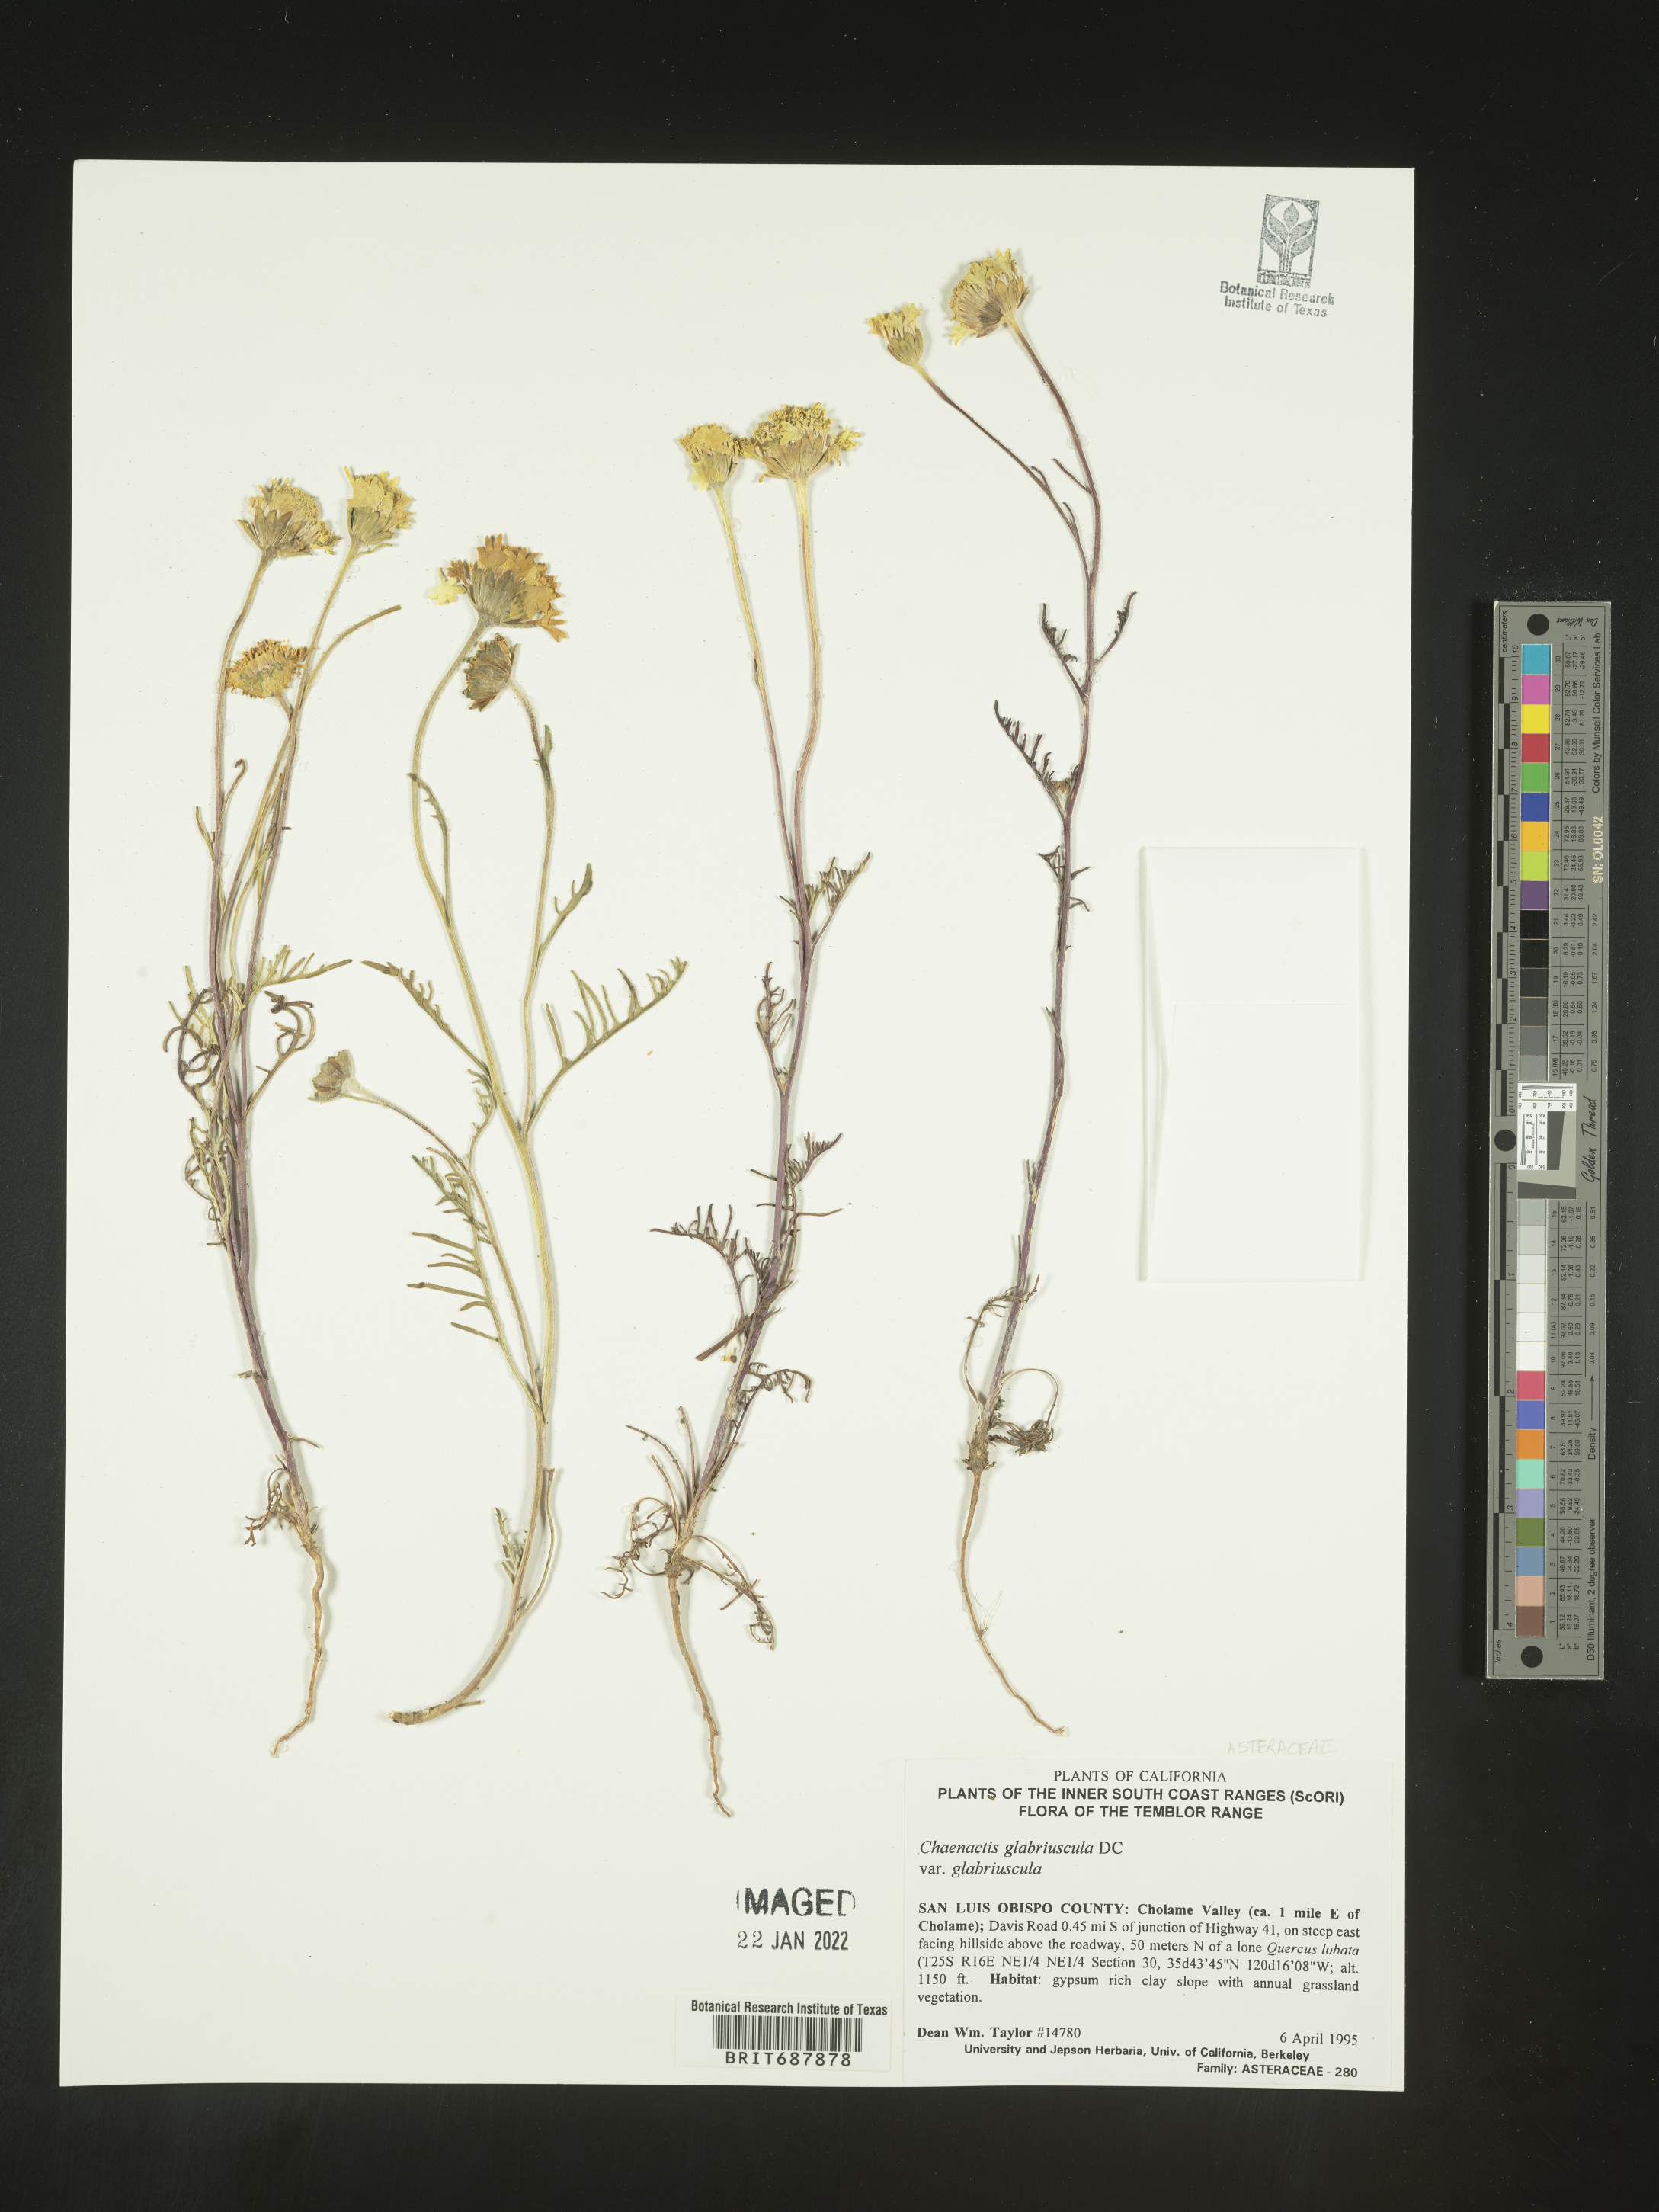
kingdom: Plantae
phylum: Tracheophyta
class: Magnoliopsida
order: Asterales
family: Asteraceae
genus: Chaenactis
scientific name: Chaenactis glabriuscula
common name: Yellow pincushion
